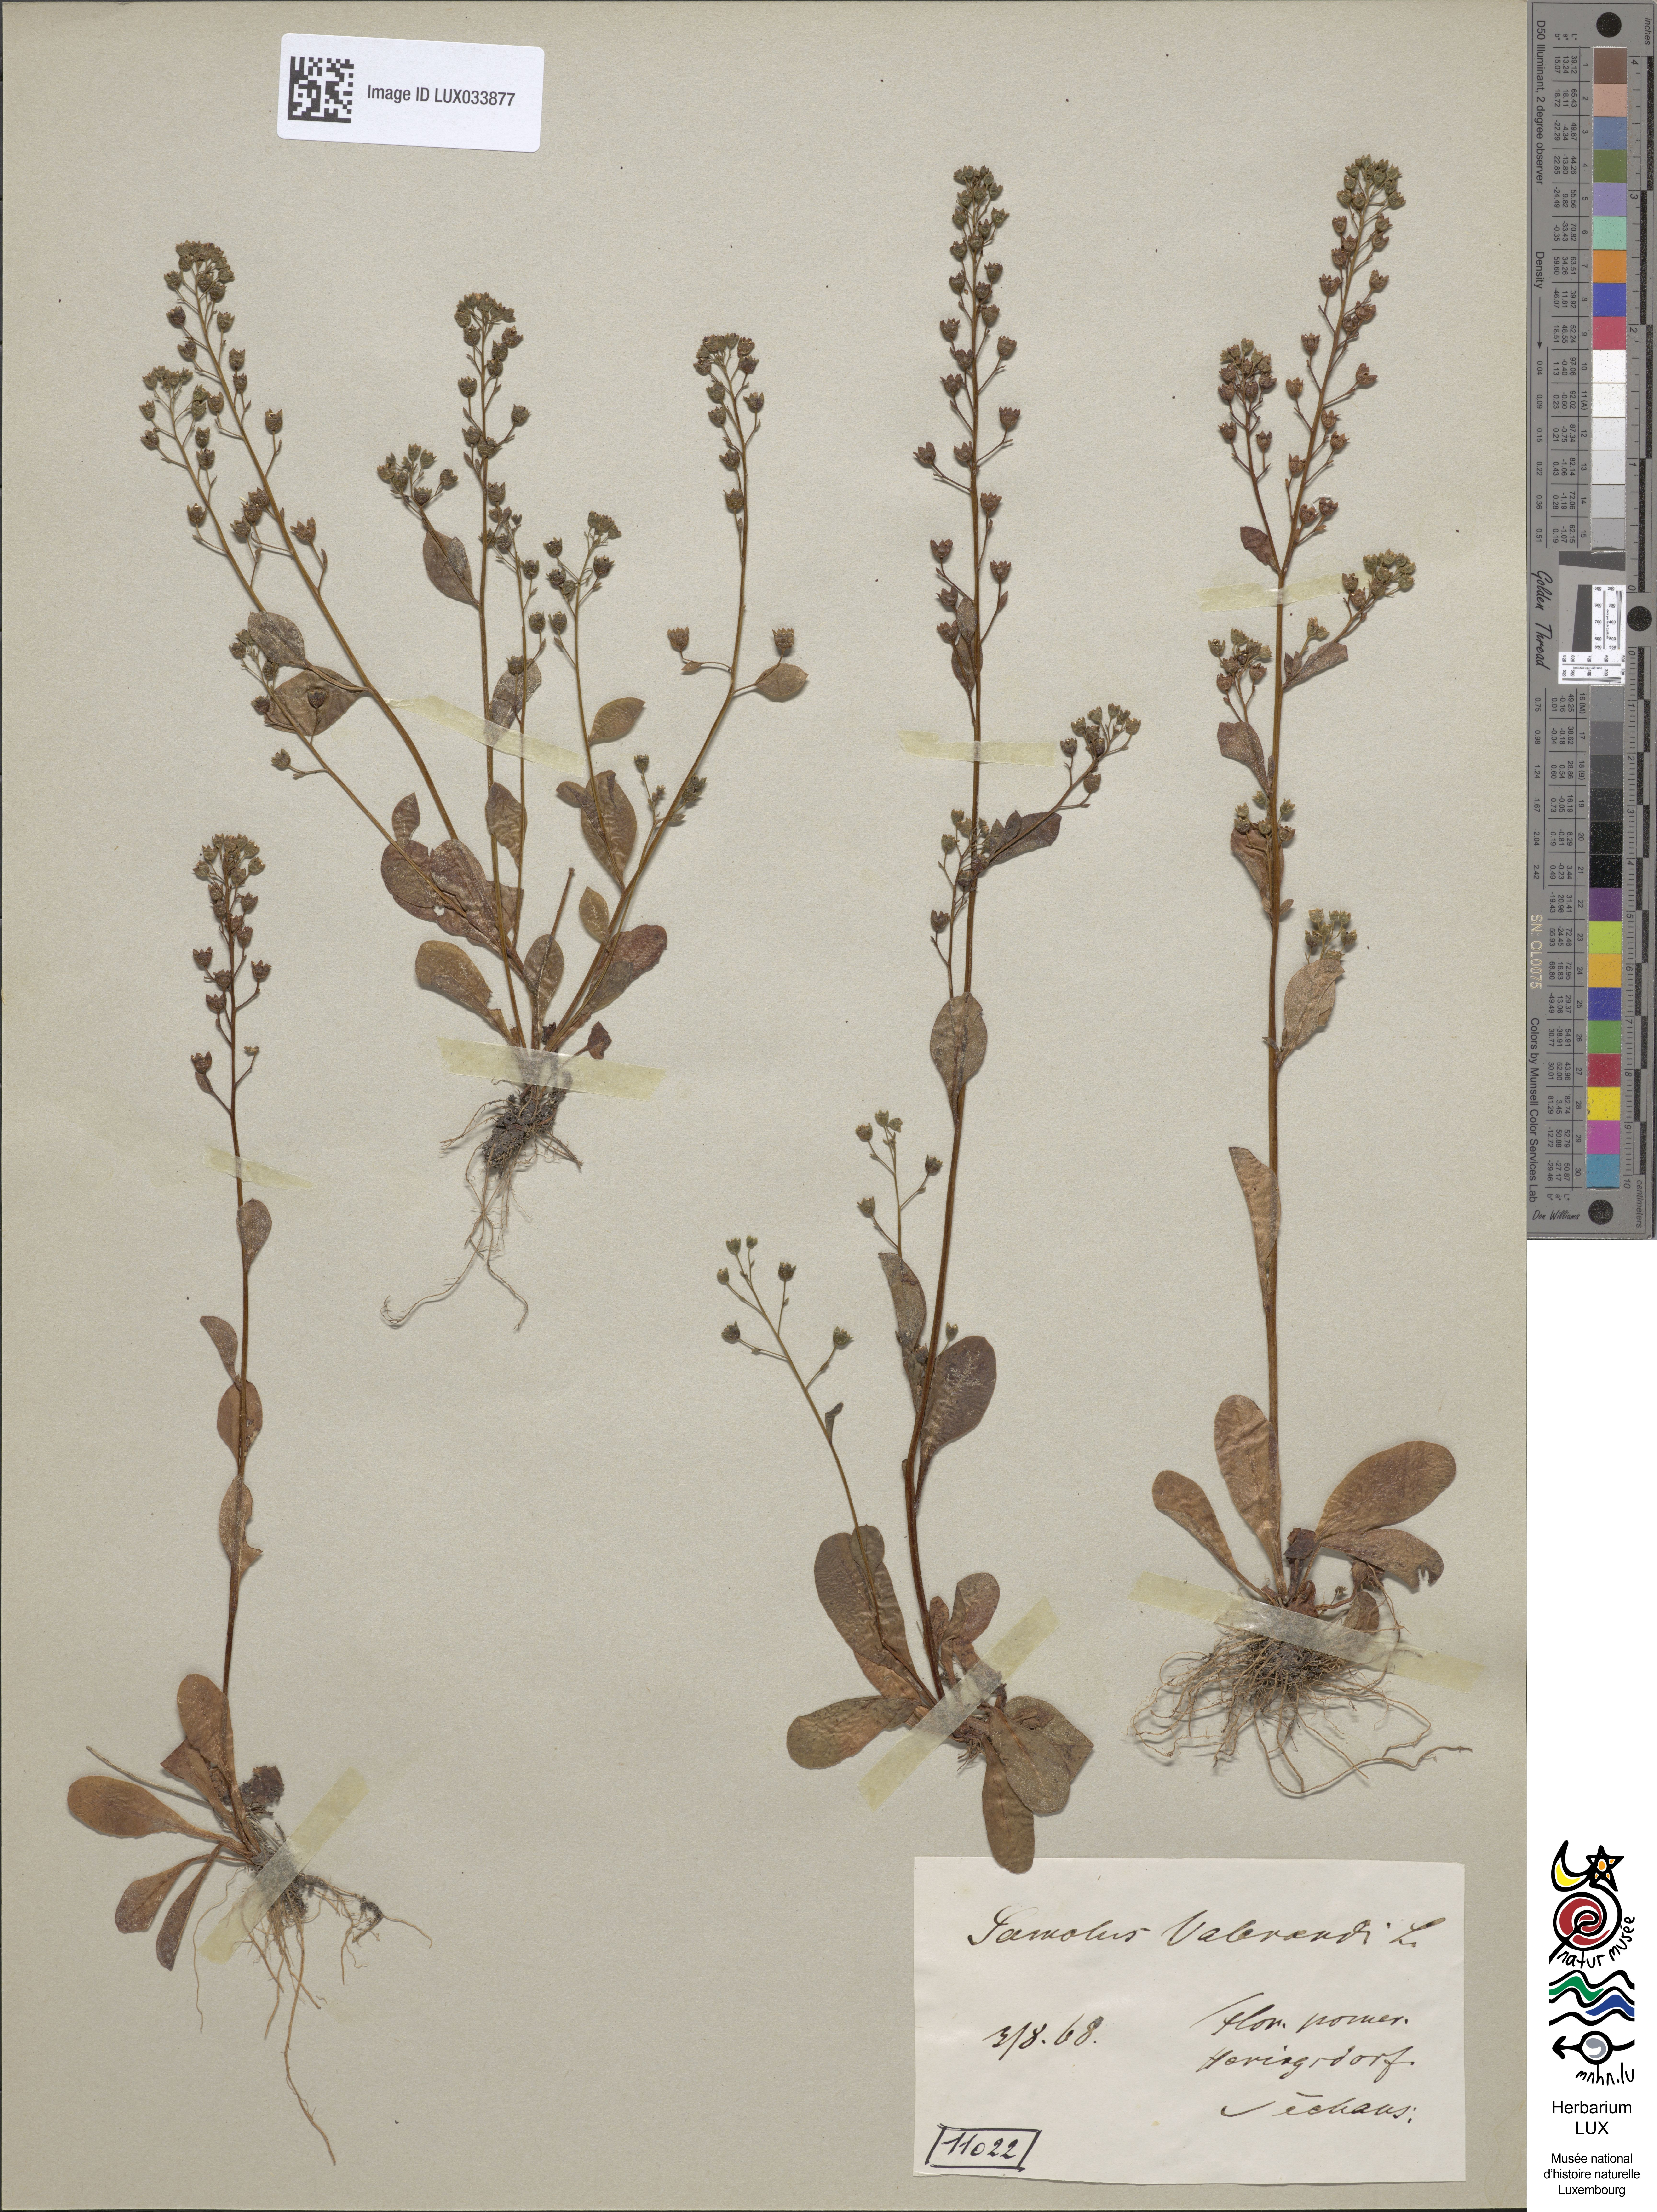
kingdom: Plantae
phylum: Tracheophyta
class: Magnoliopsida
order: Ericales
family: Primulaceae
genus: Samolus
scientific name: Samolus valerandi
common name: Brookweed
